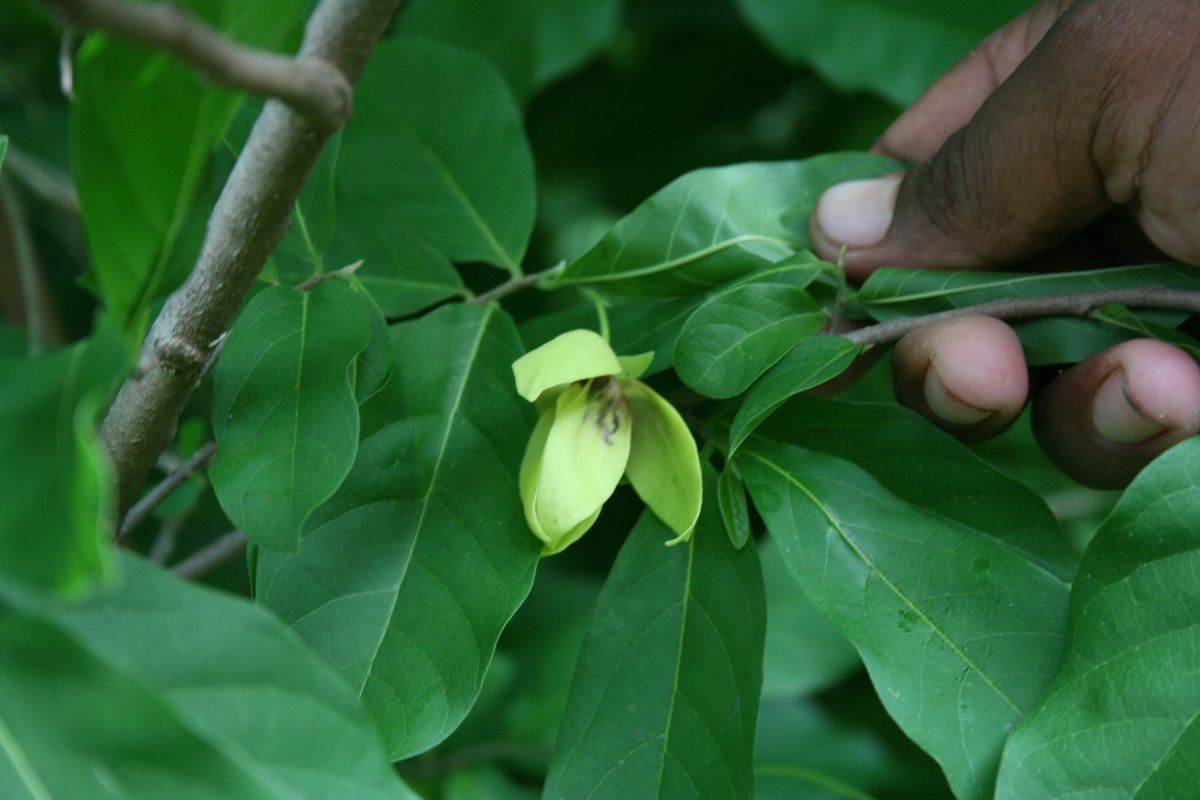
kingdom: Plantae
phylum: Tracheophyta
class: Magnoliopsida
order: Magnoliales
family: Annonaceae
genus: Desmopsis
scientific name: Desmopsis schippii
